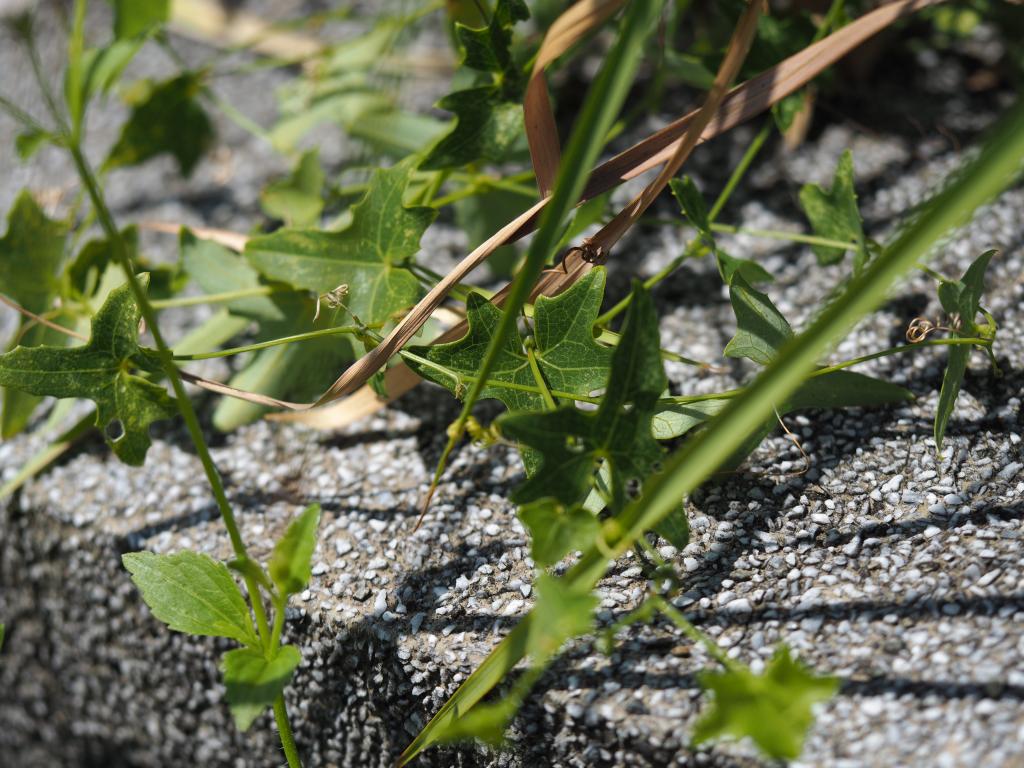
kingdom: Plantae
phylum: Tracheophyta
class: Magnoliopsida
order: Cucurbitales
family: Cucurbitaceae
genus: Solena
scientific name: Solena amplexicaulis
